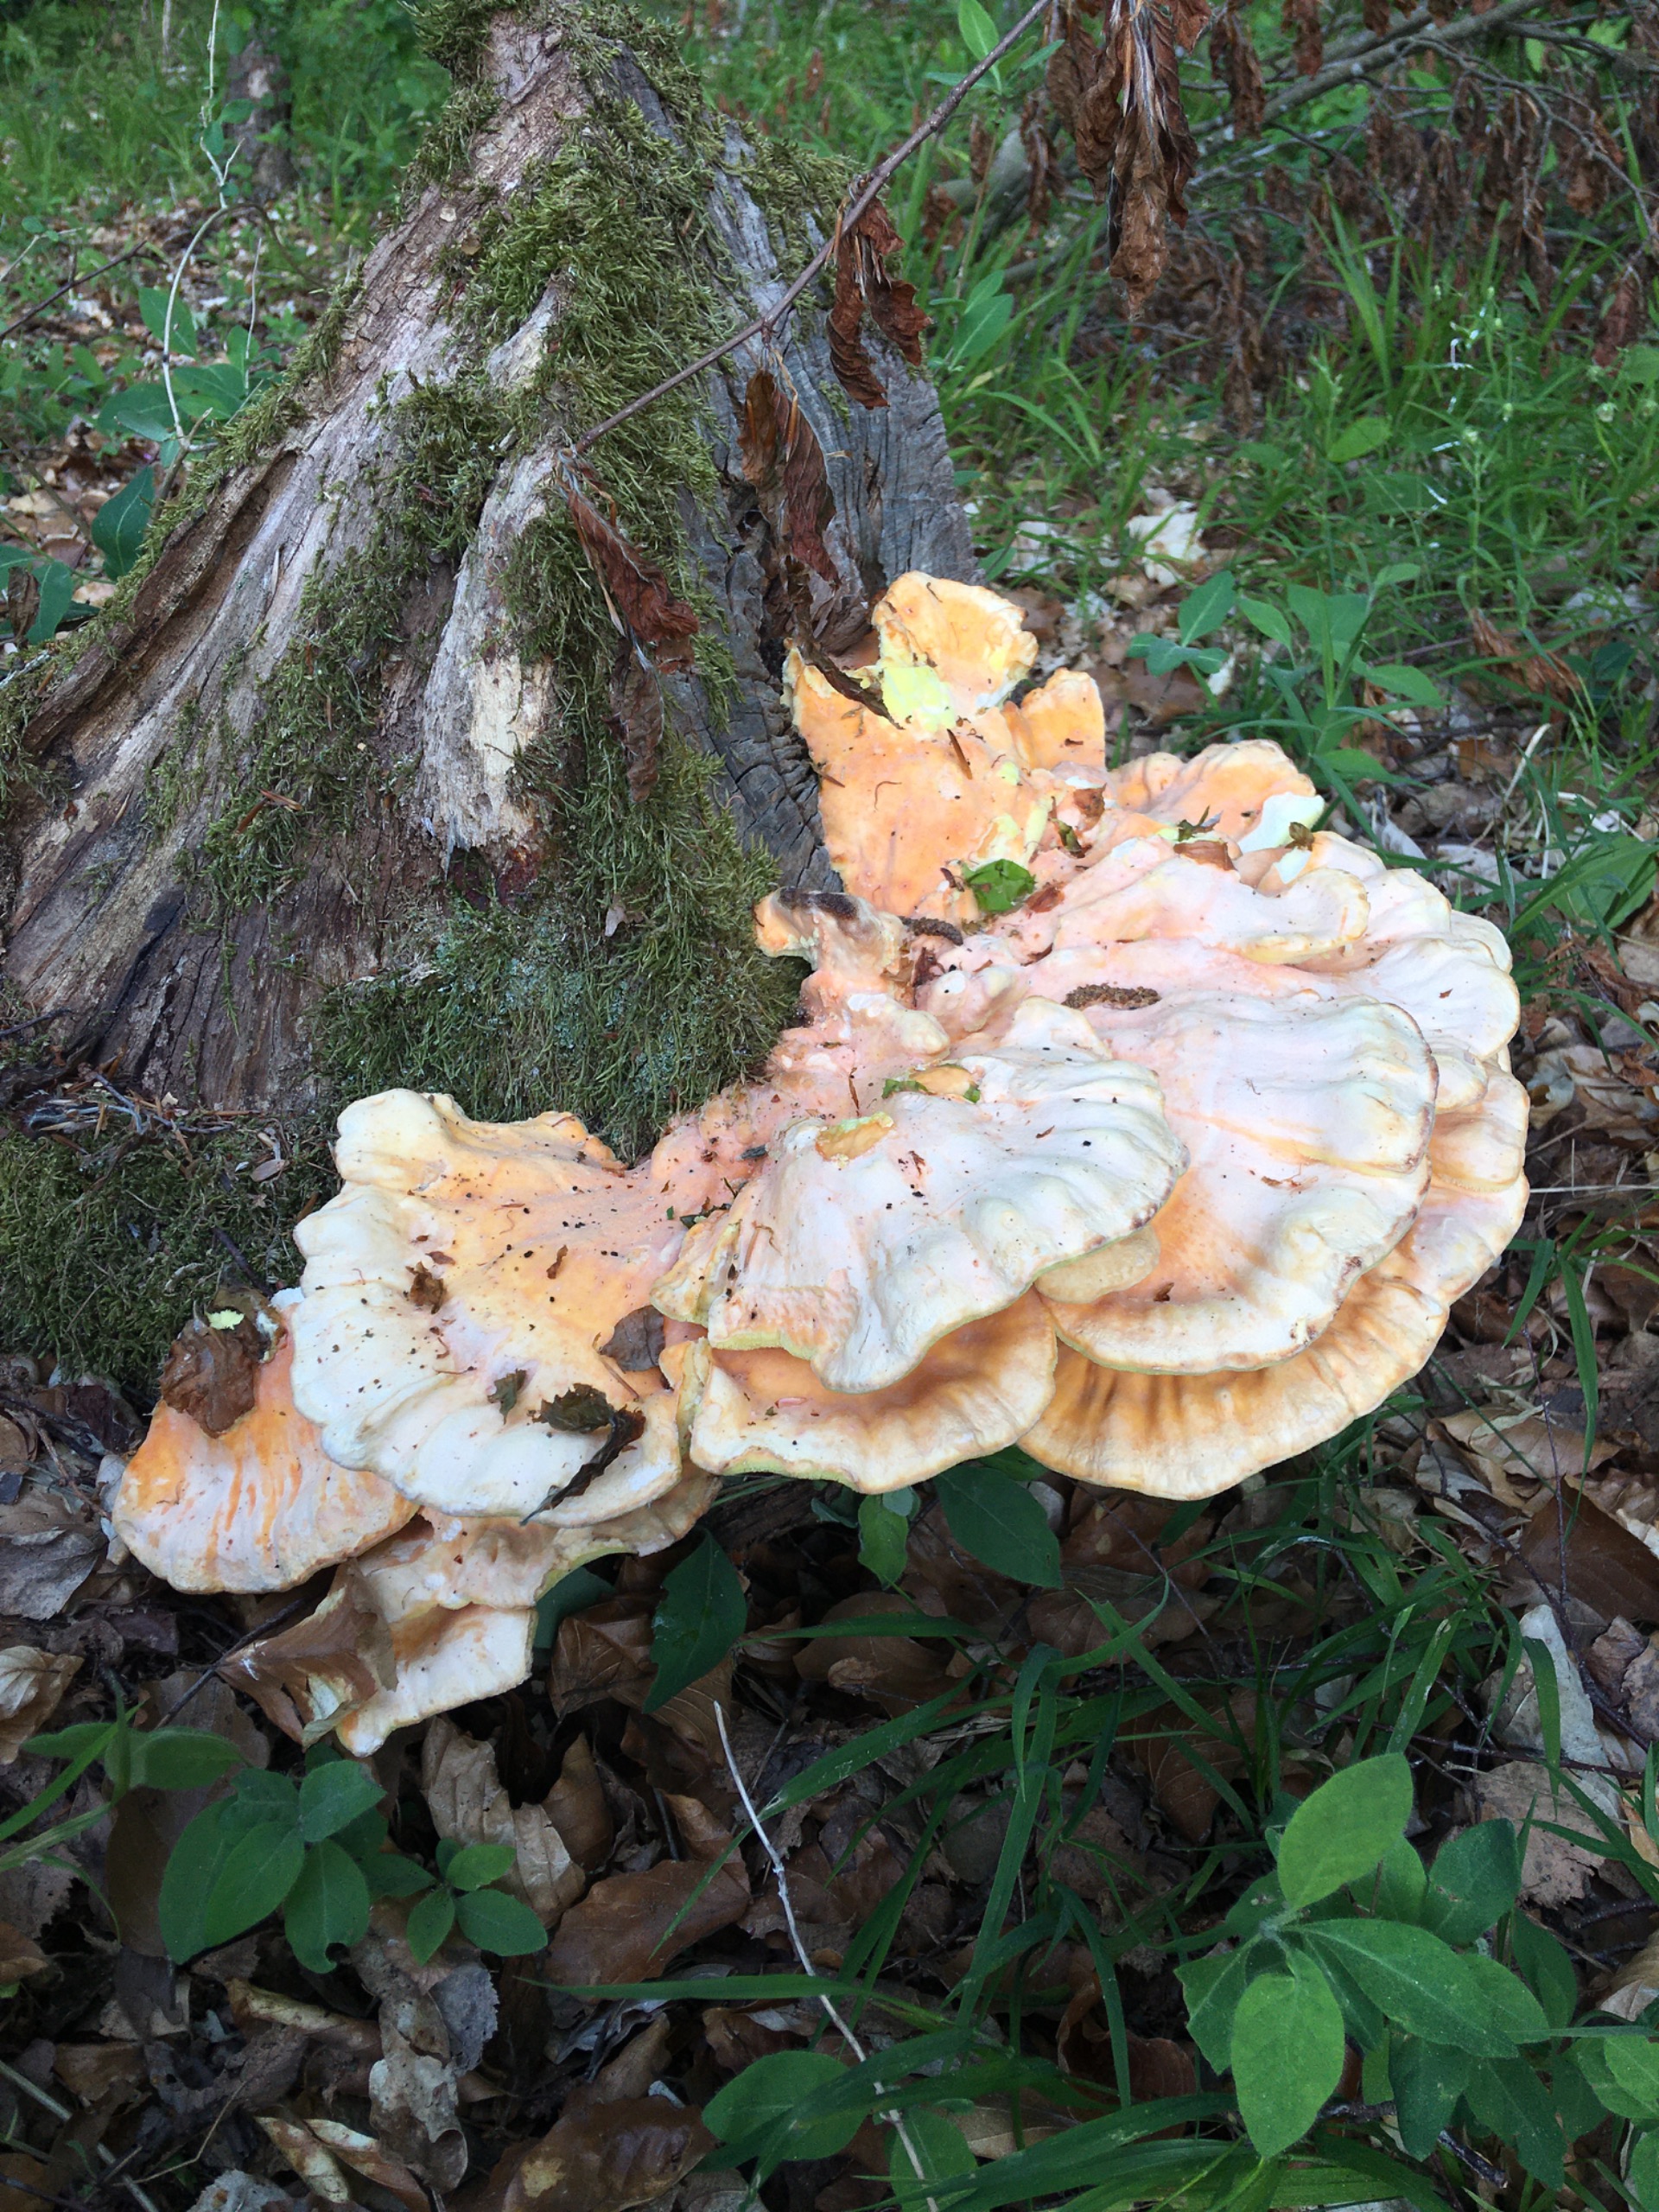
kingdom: Fungi
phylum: Basidiomycota
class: Agaricomycetes
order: Polyporales
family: Laetiporaceae
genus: Laetiporus
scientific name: Laetiporus sulphureus
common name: Svovlporesvamp
